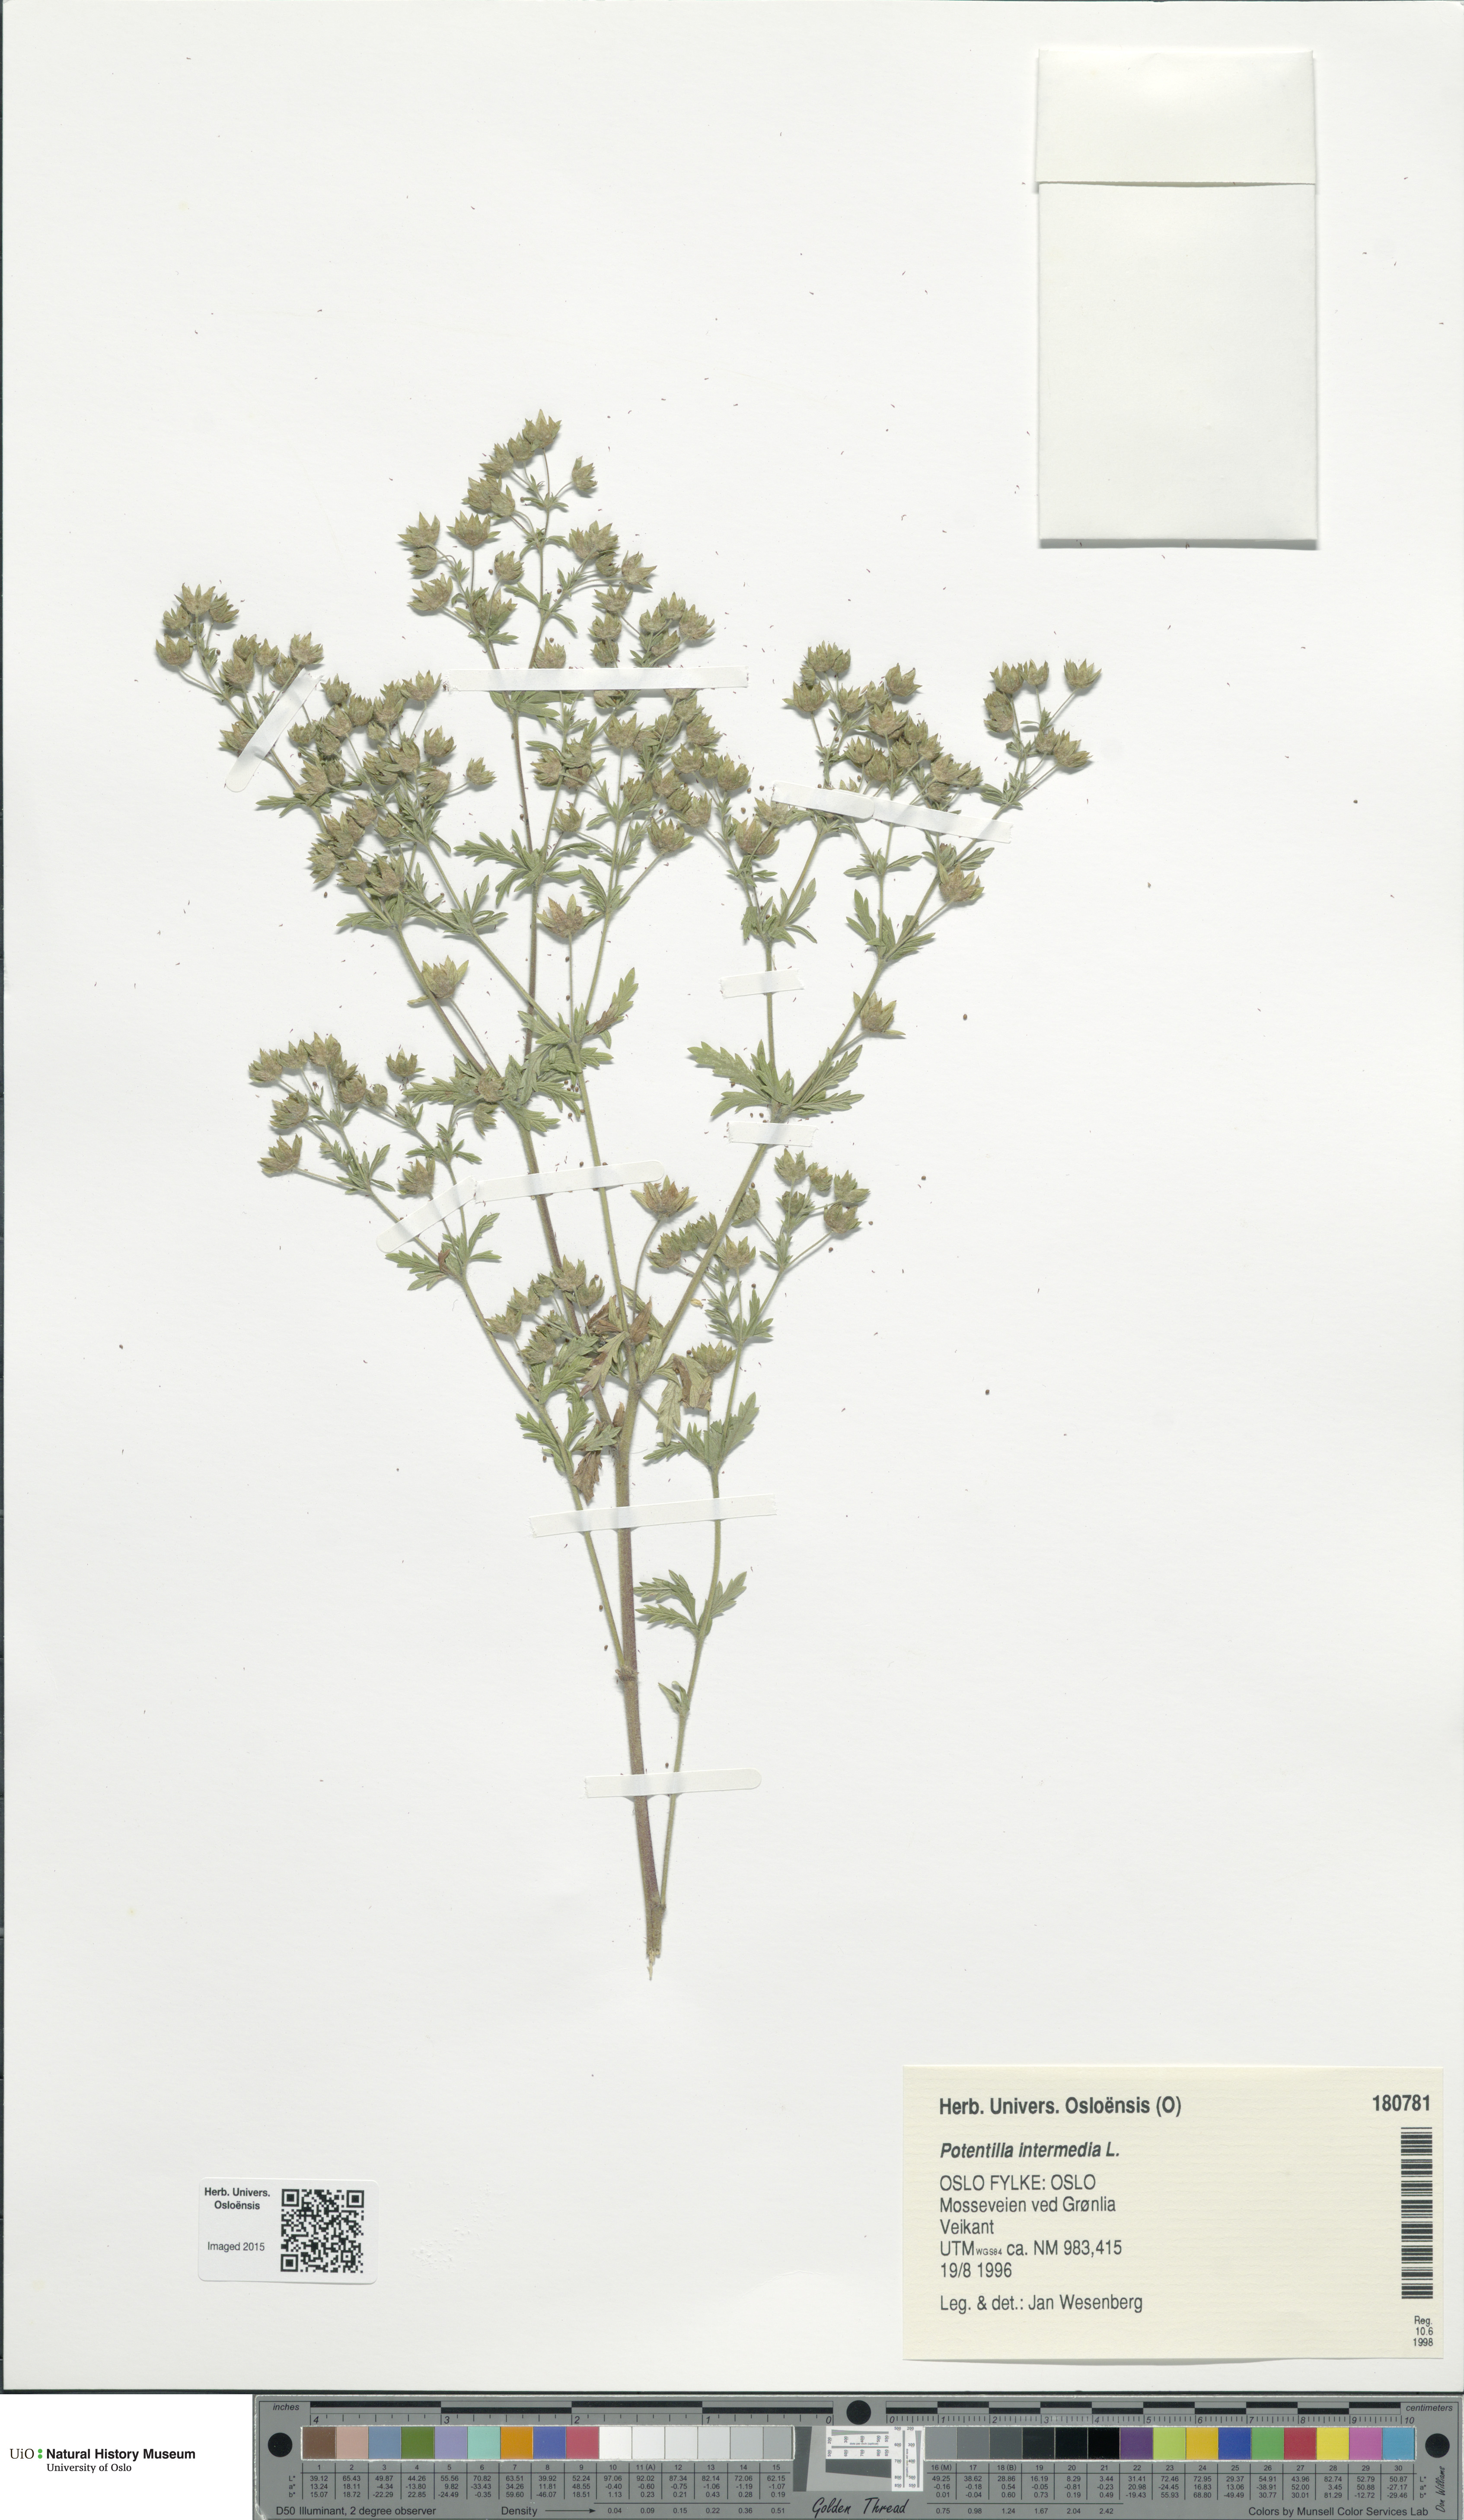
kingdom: Plantae
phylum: Tracheophyta
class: Magnoliopsida
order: Rosales
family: Rosaceae
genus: Potentilla
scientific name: Potentilla intermedia
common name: Downy cinquefoil
